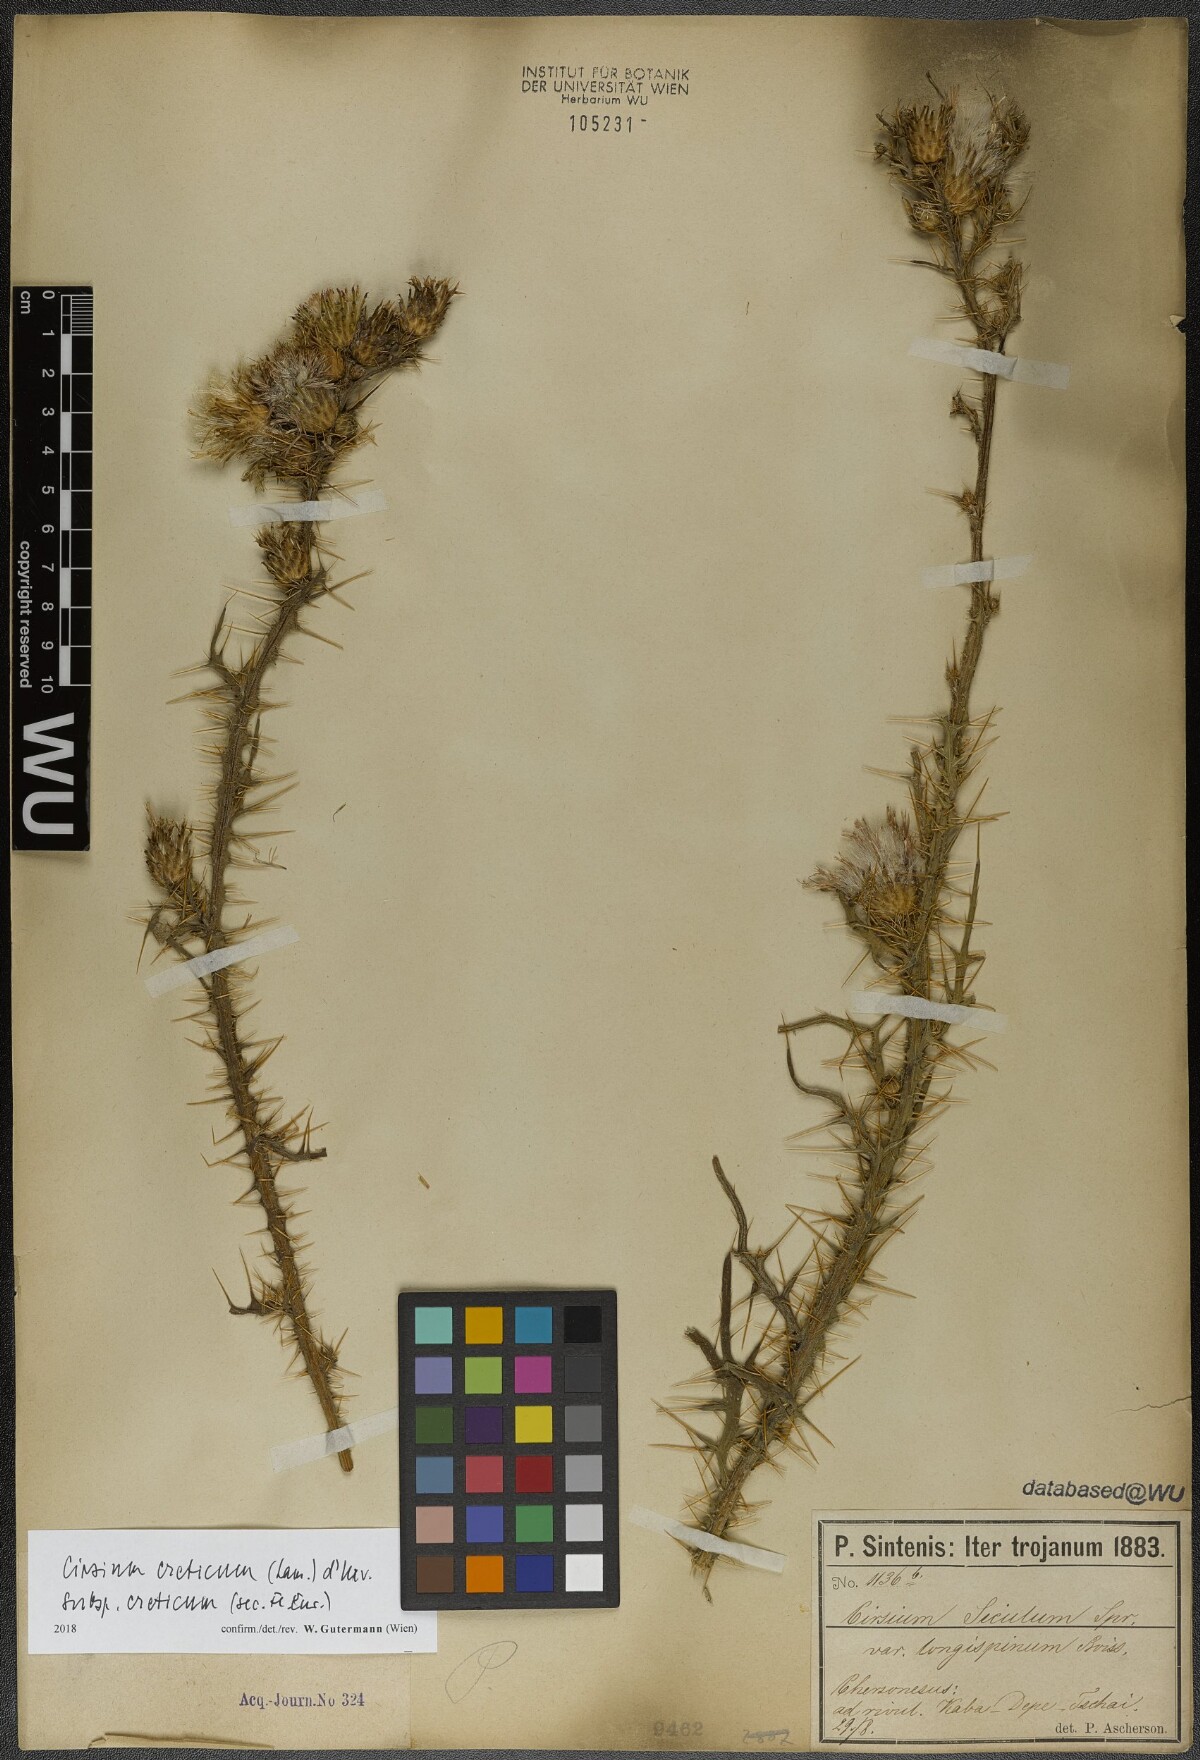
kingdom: Plantae
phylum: Tracheophyta
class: Magnoliopsida
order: Asterales
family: Asteraceae
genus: Cirsium
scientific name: Cirsium creticum
